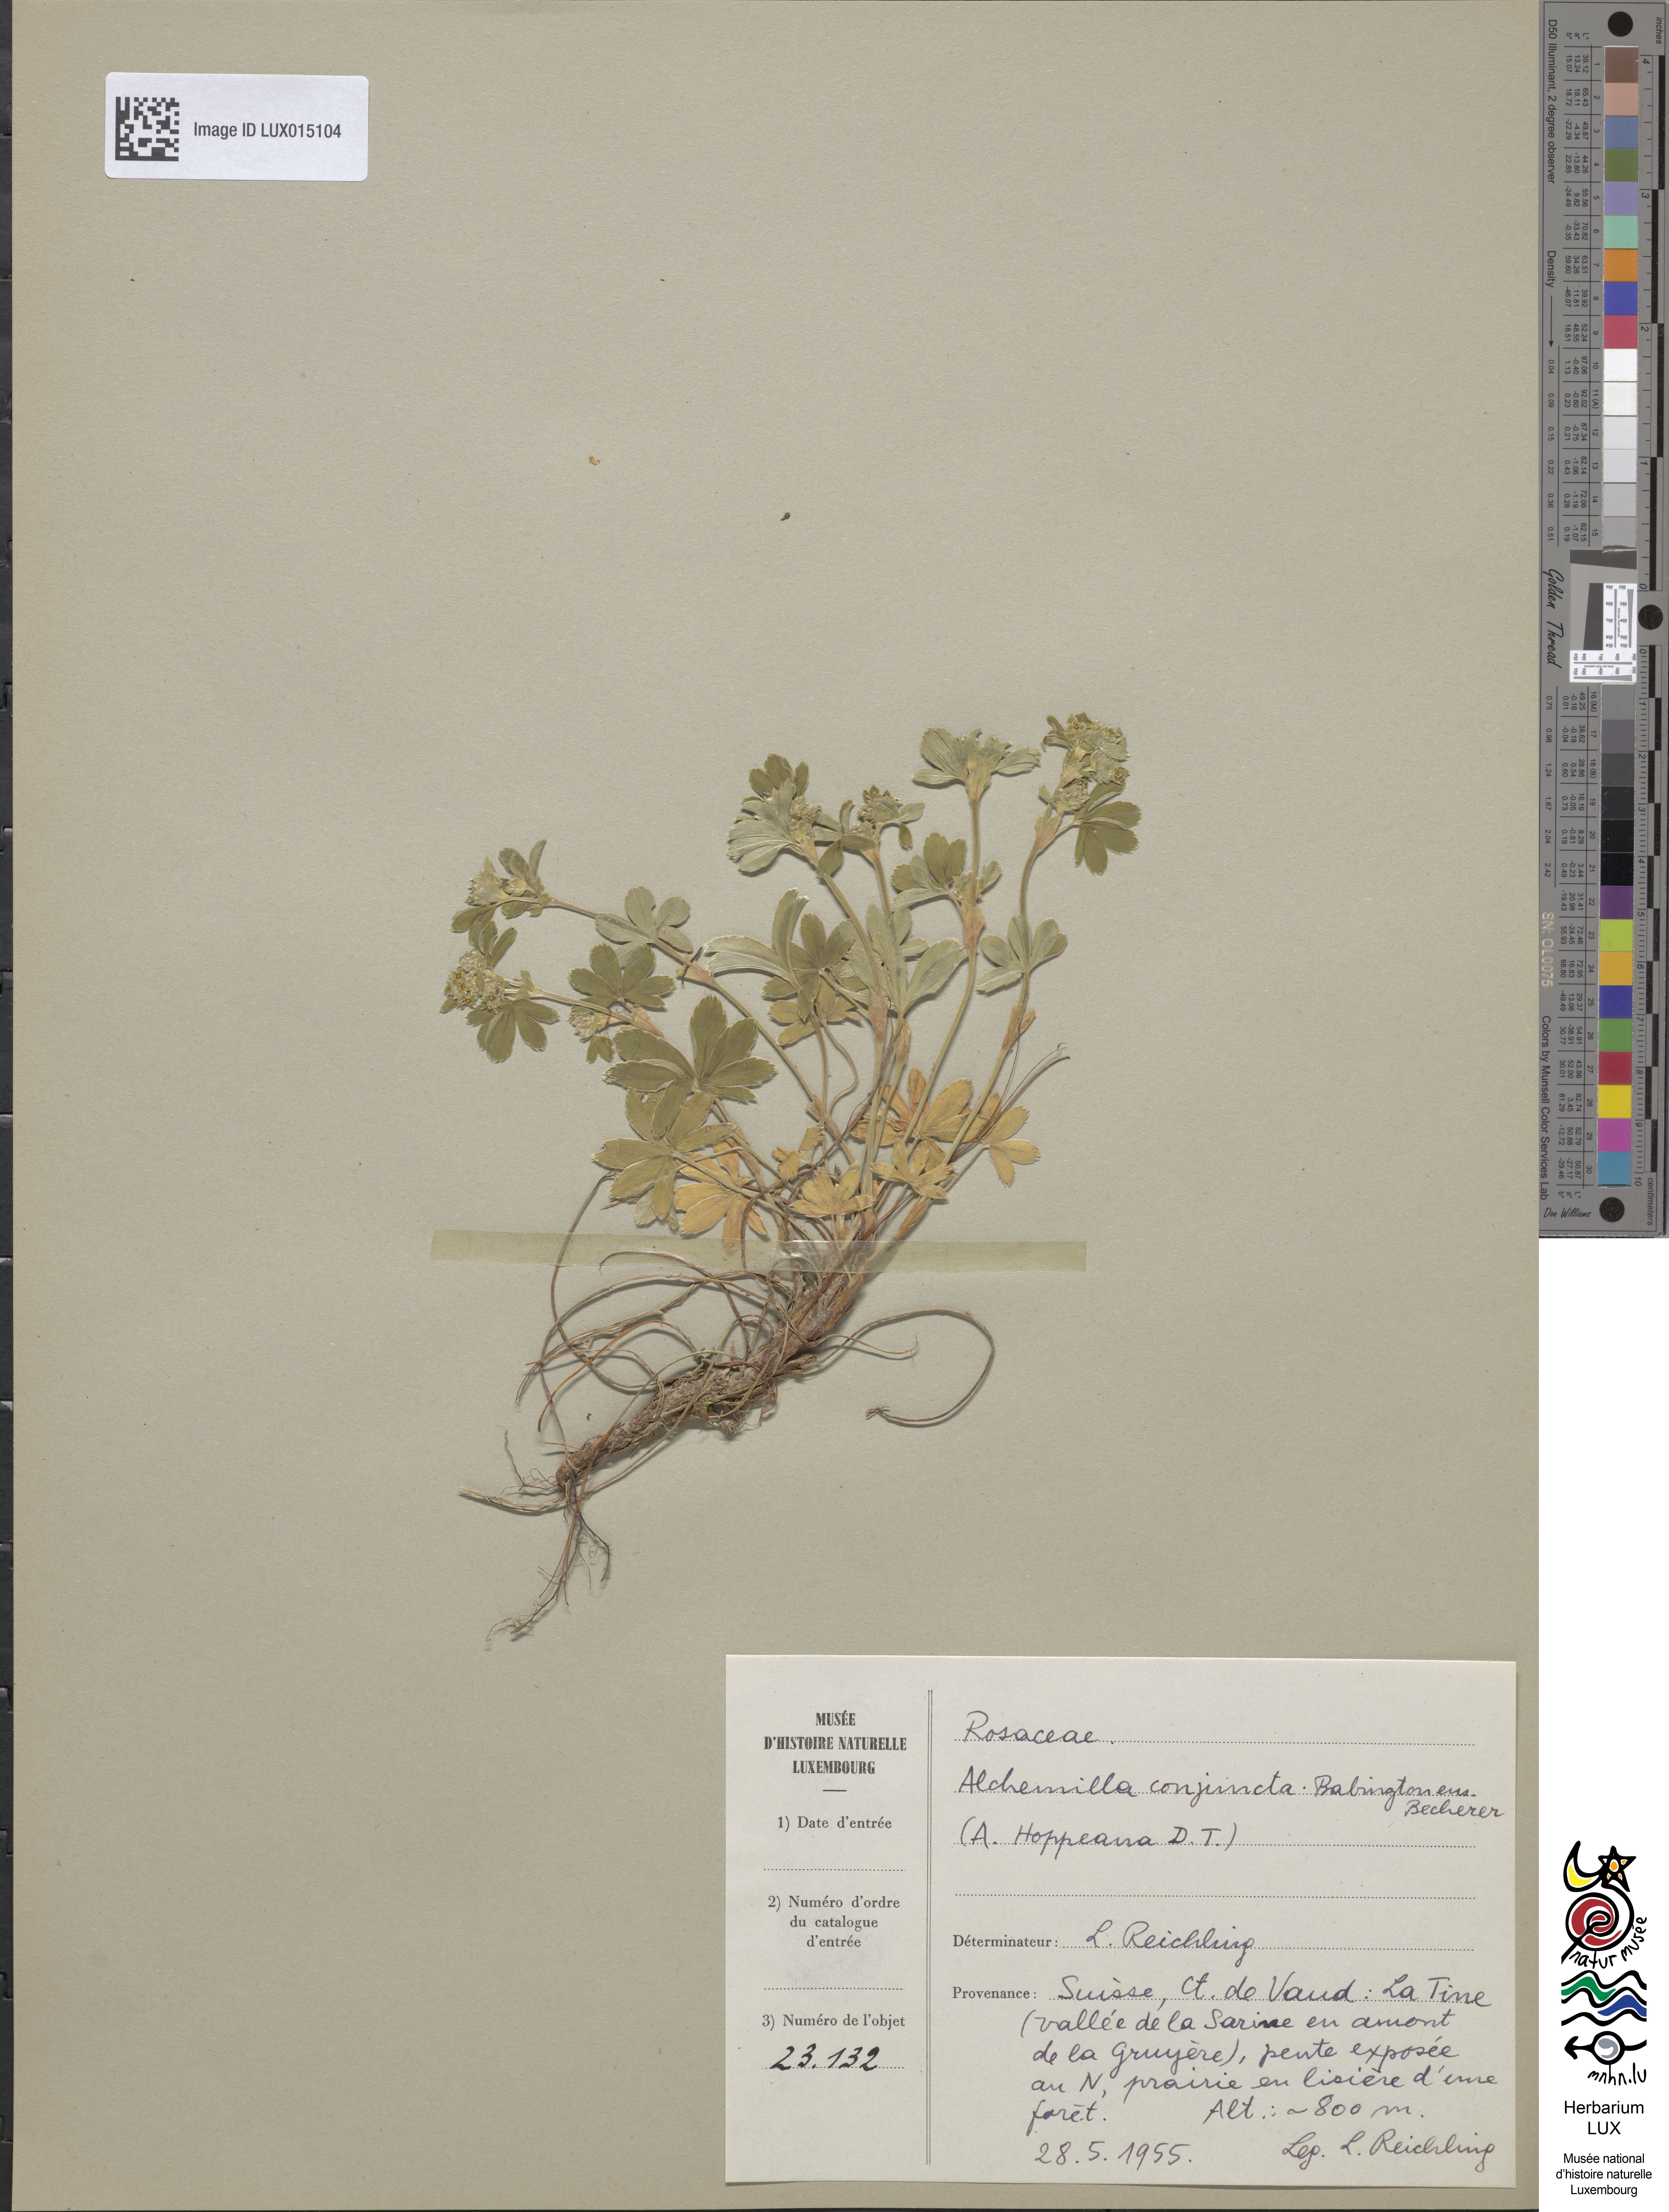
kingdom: Plantae
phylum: Tracheophyta
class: Magnoliopsida
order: Rosales
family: Rosaceae
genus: Alchemilla
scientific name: Alchemilla conjuncta
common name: Silver lady's-mantle
